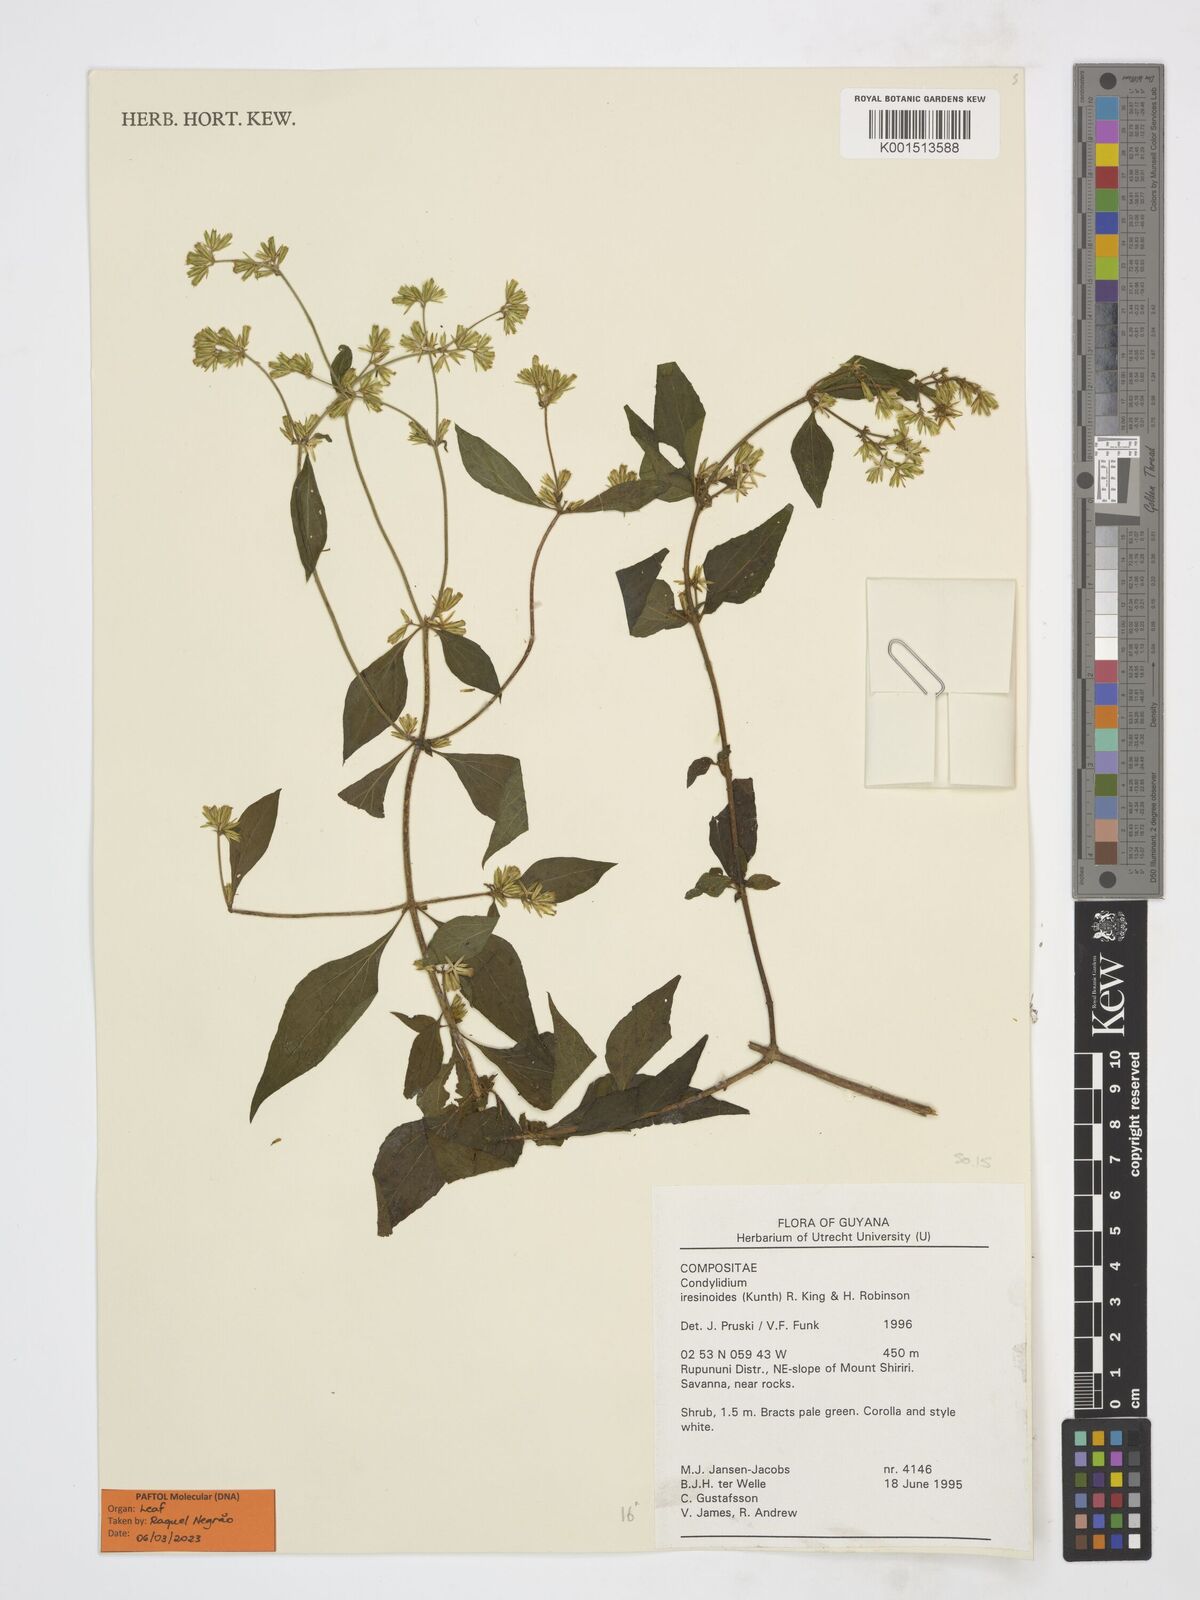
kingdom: Plantae
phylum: Tracheophyta
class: Magnoliopsida
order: Asterales
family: Asteraceae
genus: Condylidium
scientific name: Condylidium iresinoides
